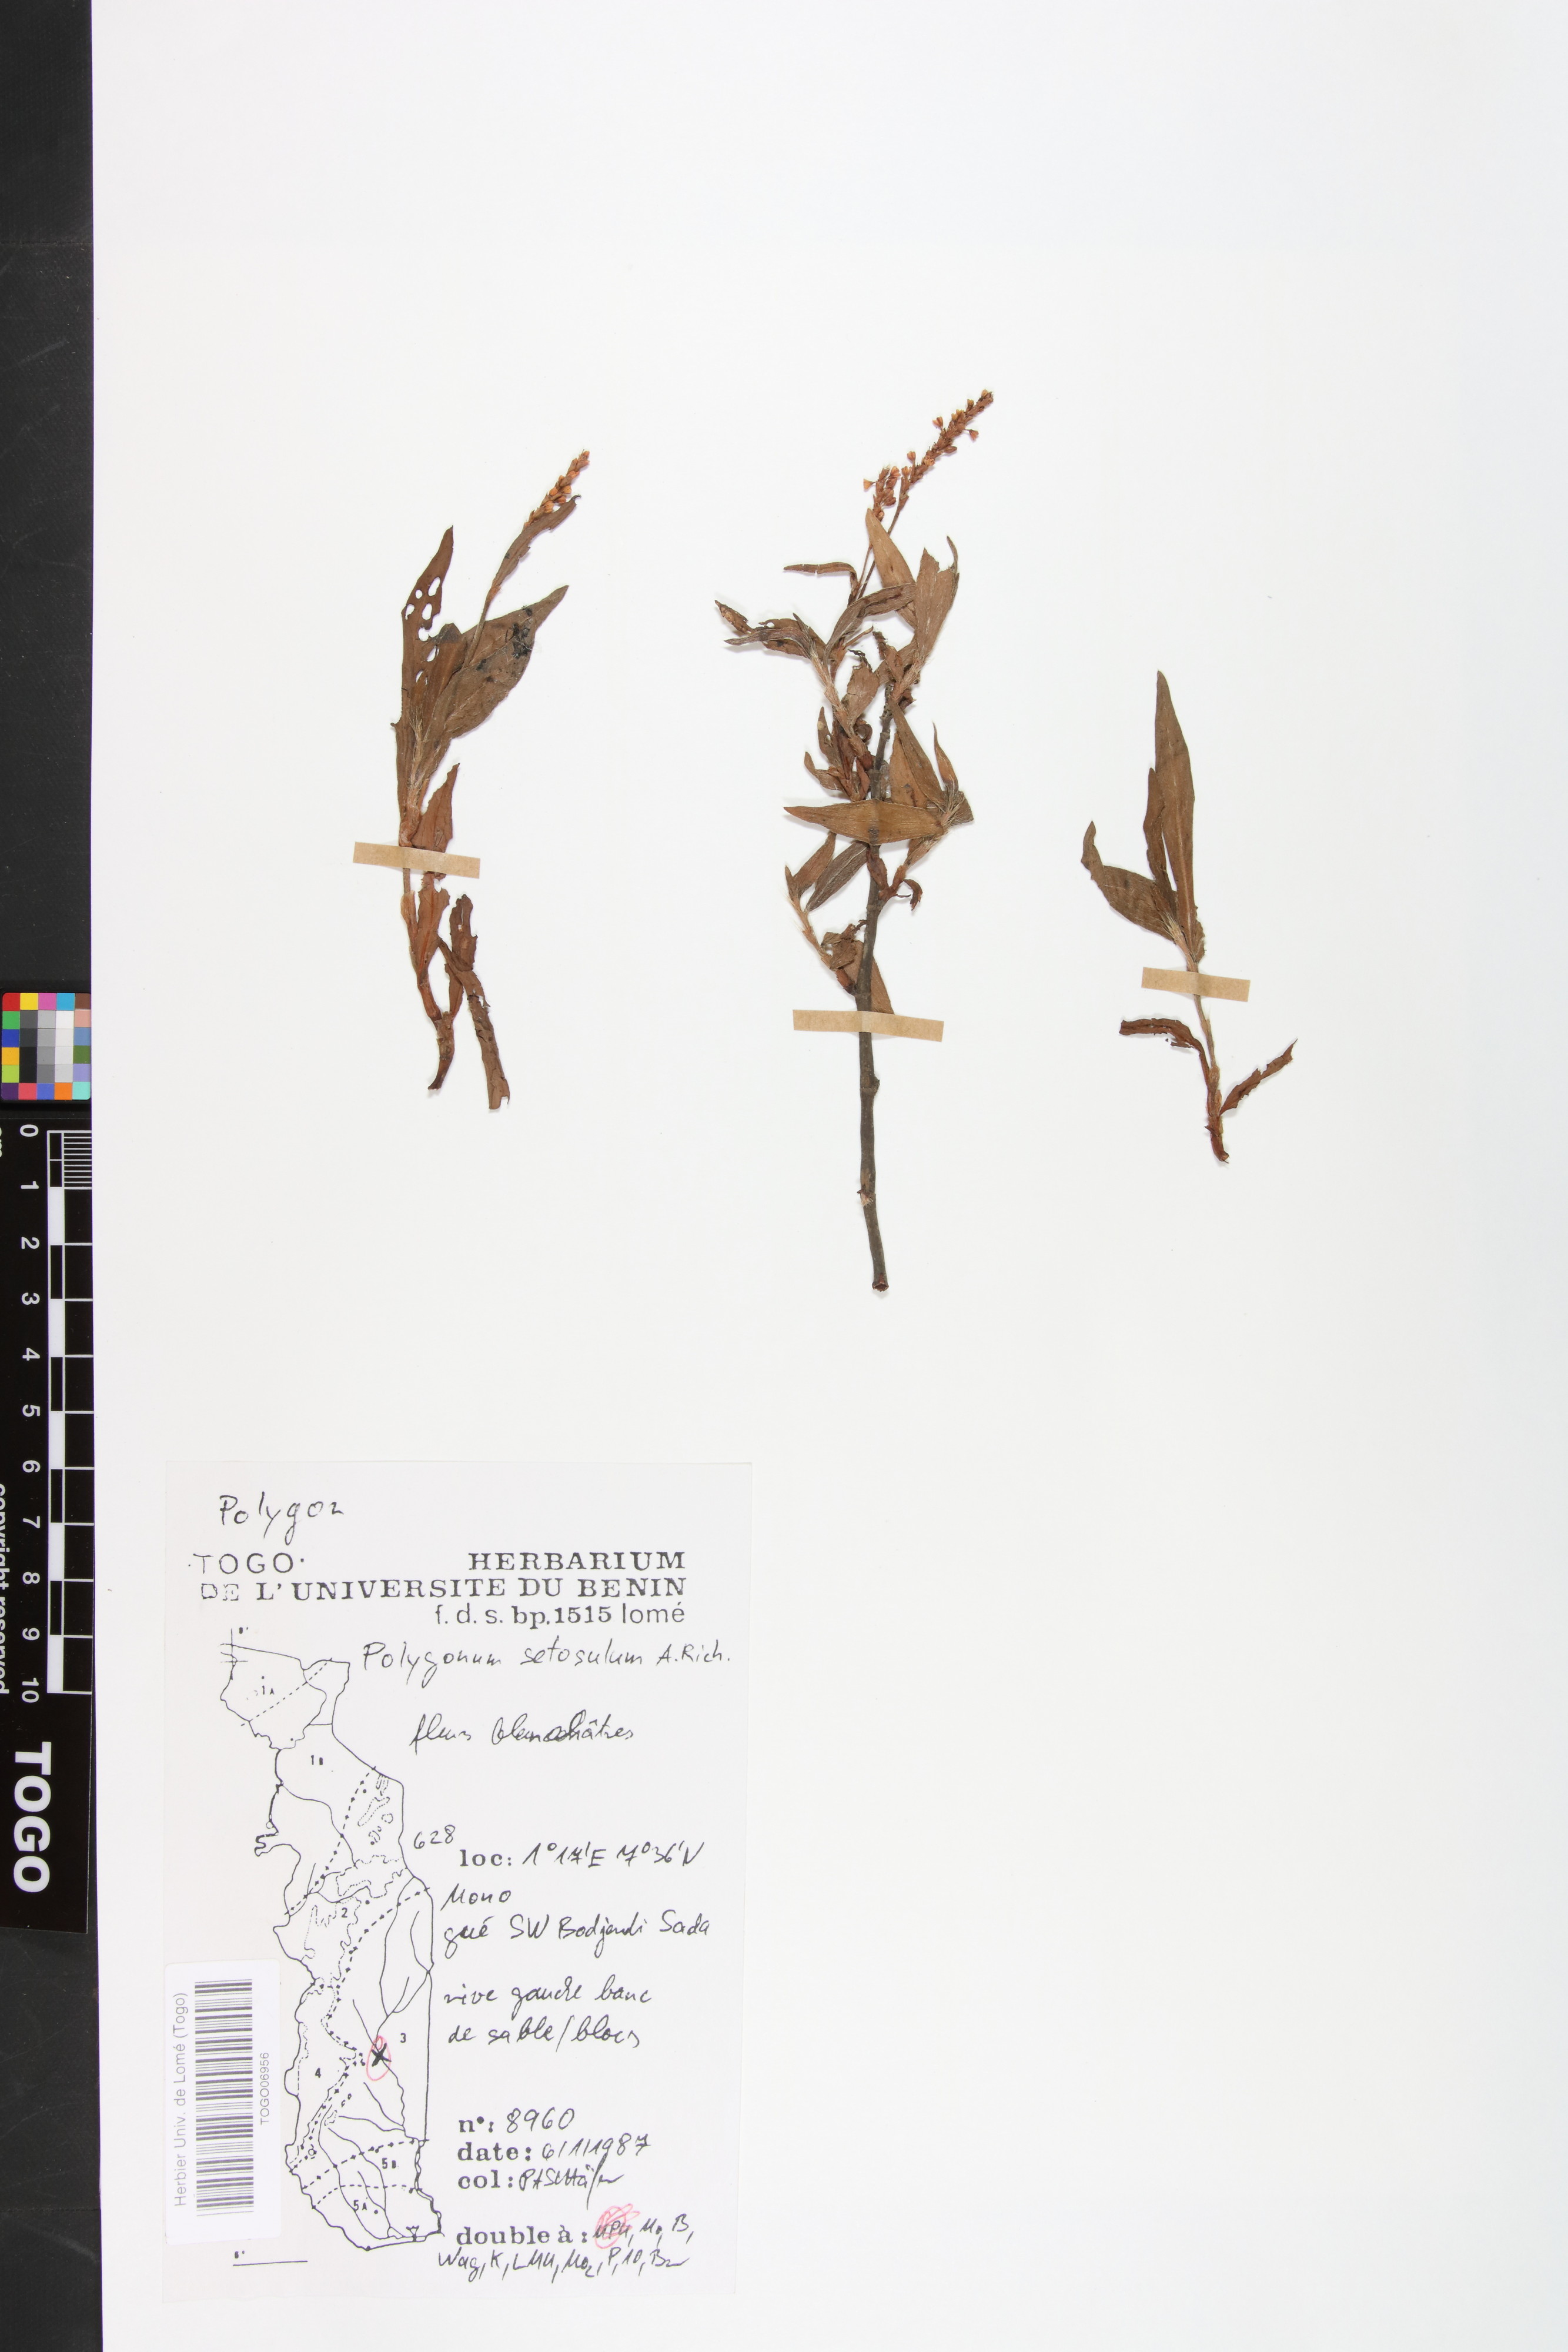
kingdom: Plantae
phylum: Tracheophyta
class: Magnoliopsida
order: Caryophyllales
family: Polygonaceae
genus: Persicaria
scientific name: Persicaria setosula
